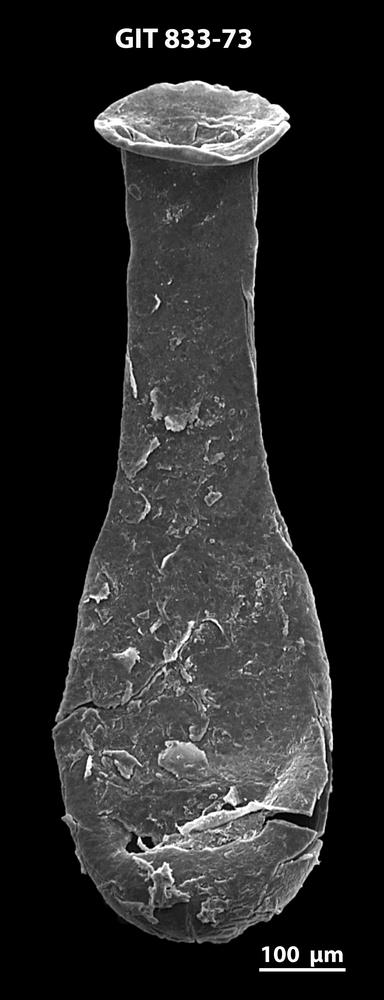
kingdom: Animalia
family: Lagenochitinidae
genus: Lagenochitina
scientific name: Lagenochitina megaesthonica
